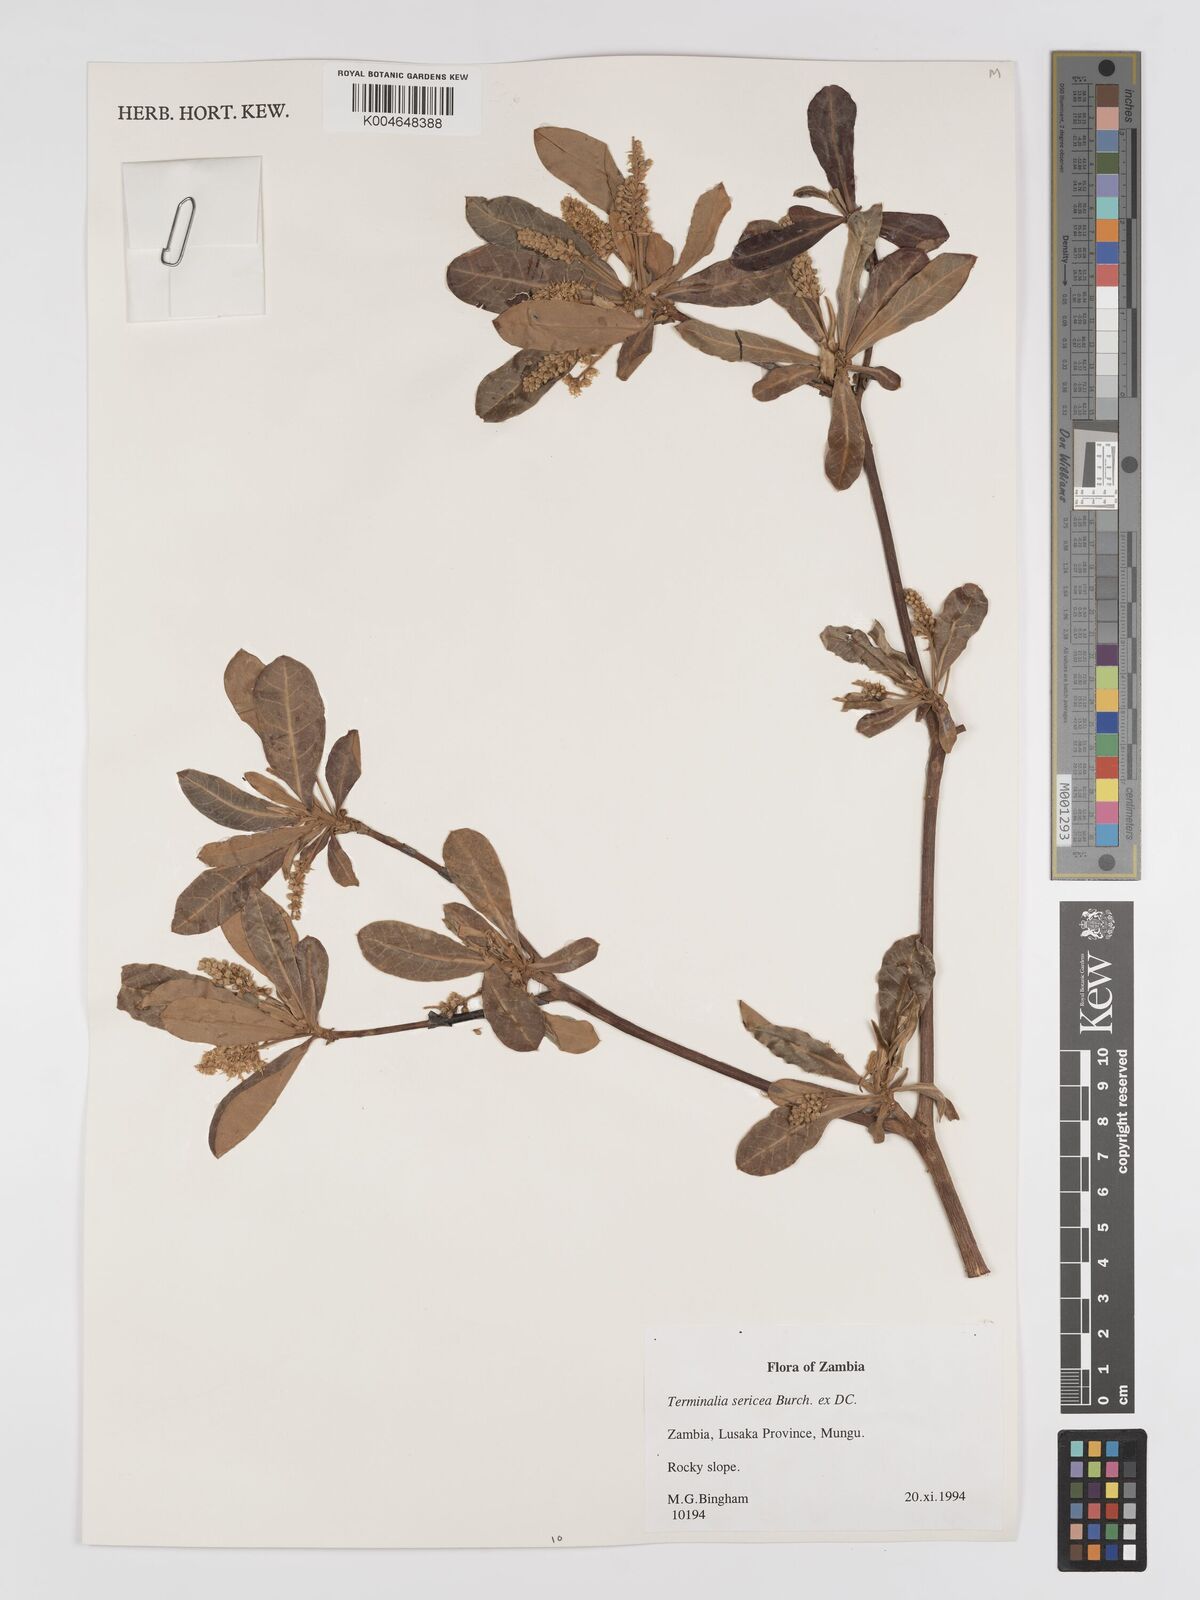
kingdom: Plantae
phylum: Tracheophyta
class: Magnoliopsida
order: Myrtales
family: Combretaceae
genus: Terminalia
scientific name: Terminalia
